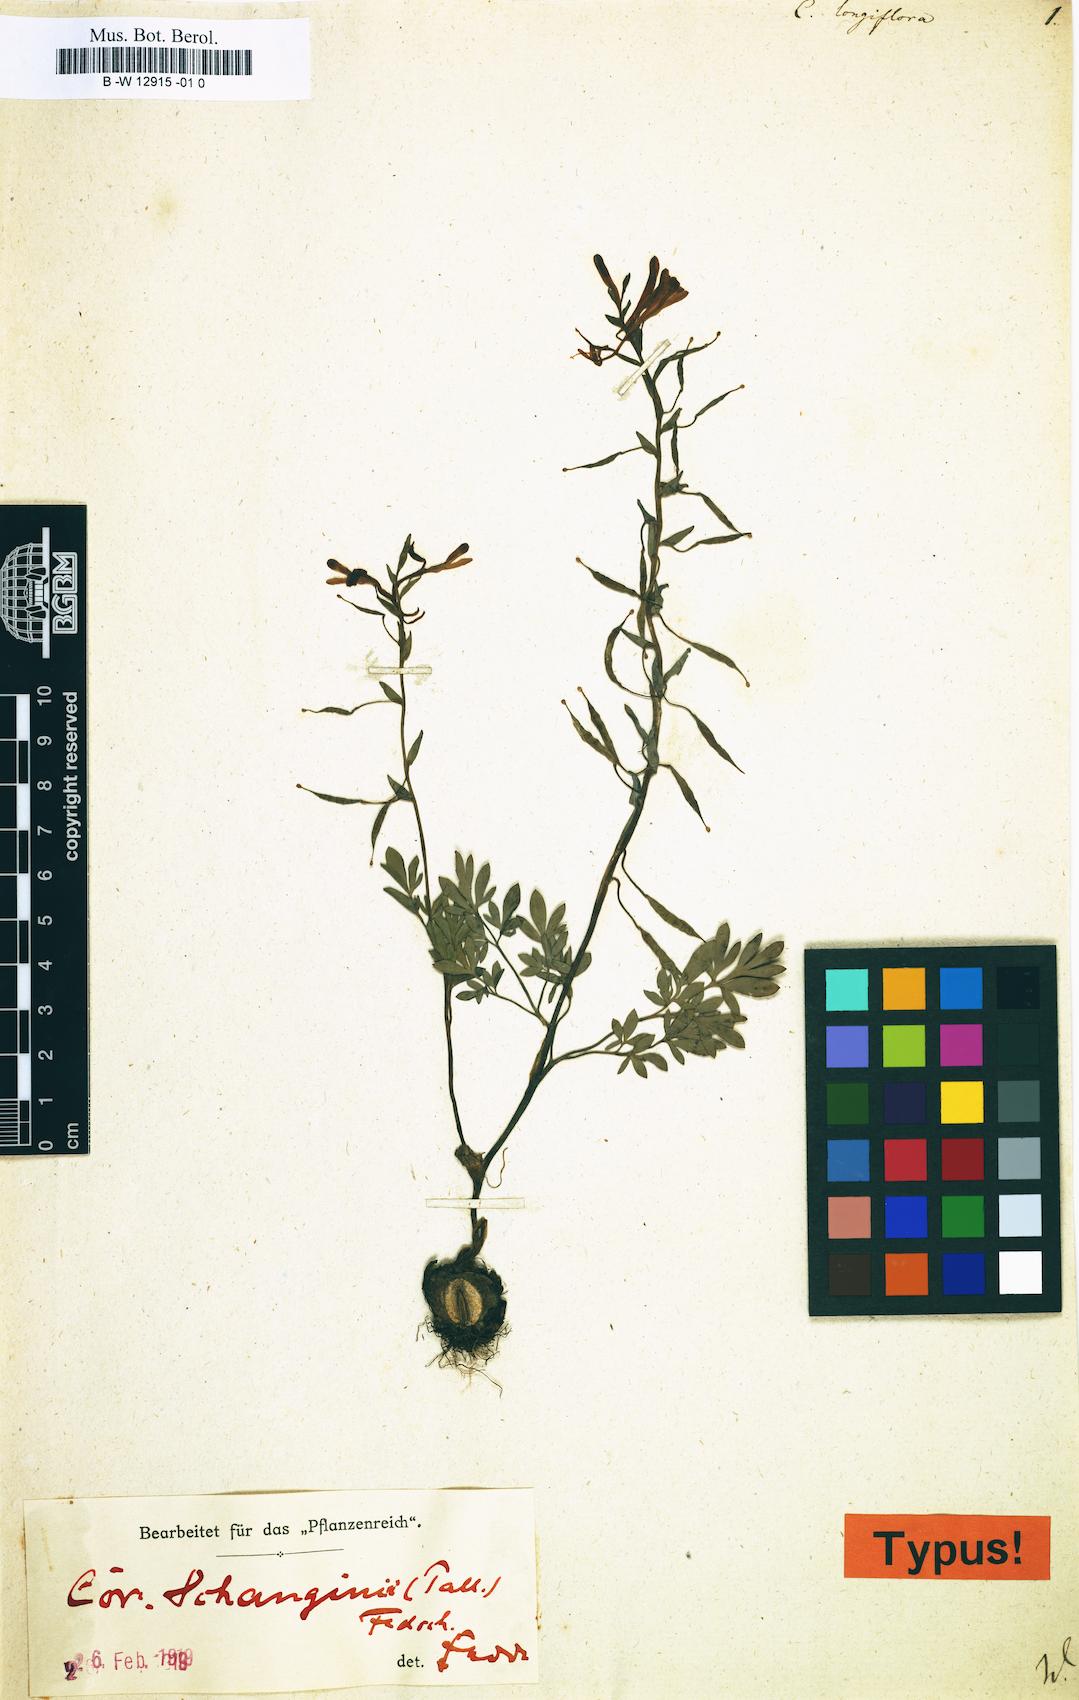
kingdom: Plantae
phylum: Tracheophyta
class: Magnoliopsida
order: Ranunculales
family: Papaveraceae
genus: Corydalis
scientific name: Corydalis schanginii
